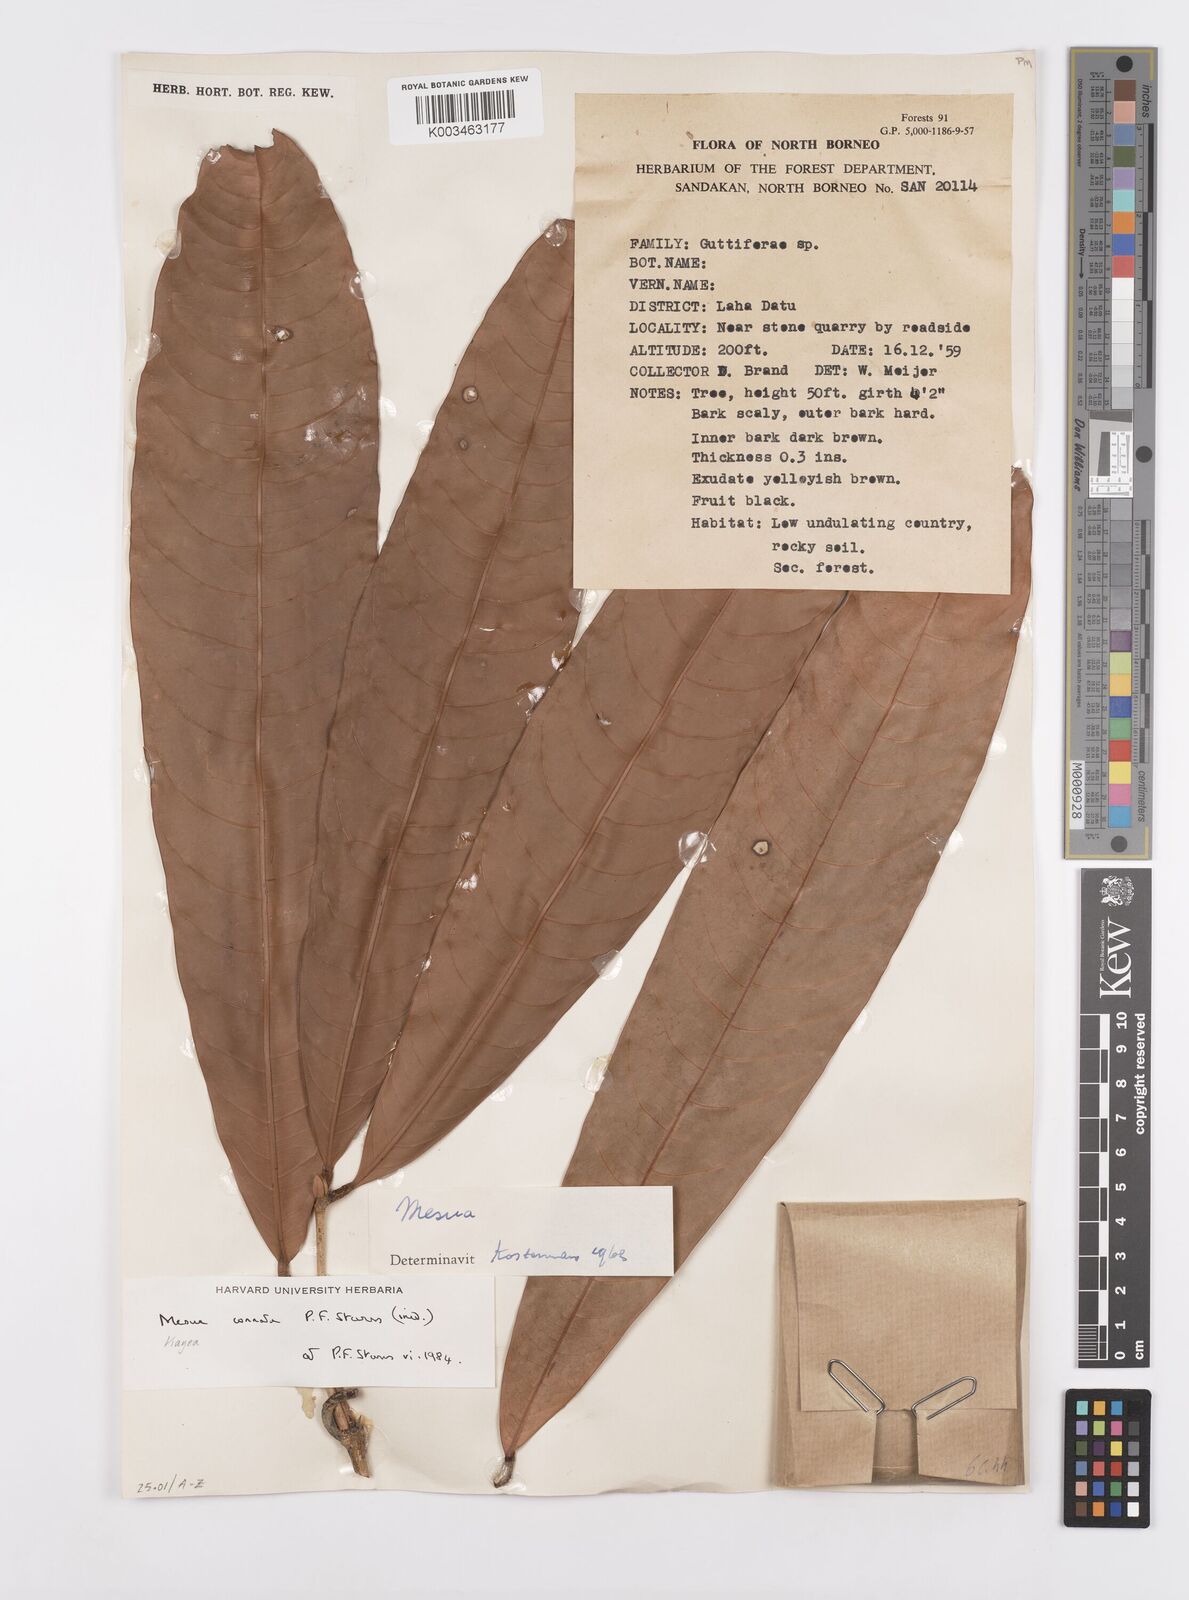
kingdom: Plantae
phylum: Tracheophyta
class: Magnoliopsida
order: Malpighiales
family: Calophyllaceae
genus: Kayea
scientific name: Kayea
